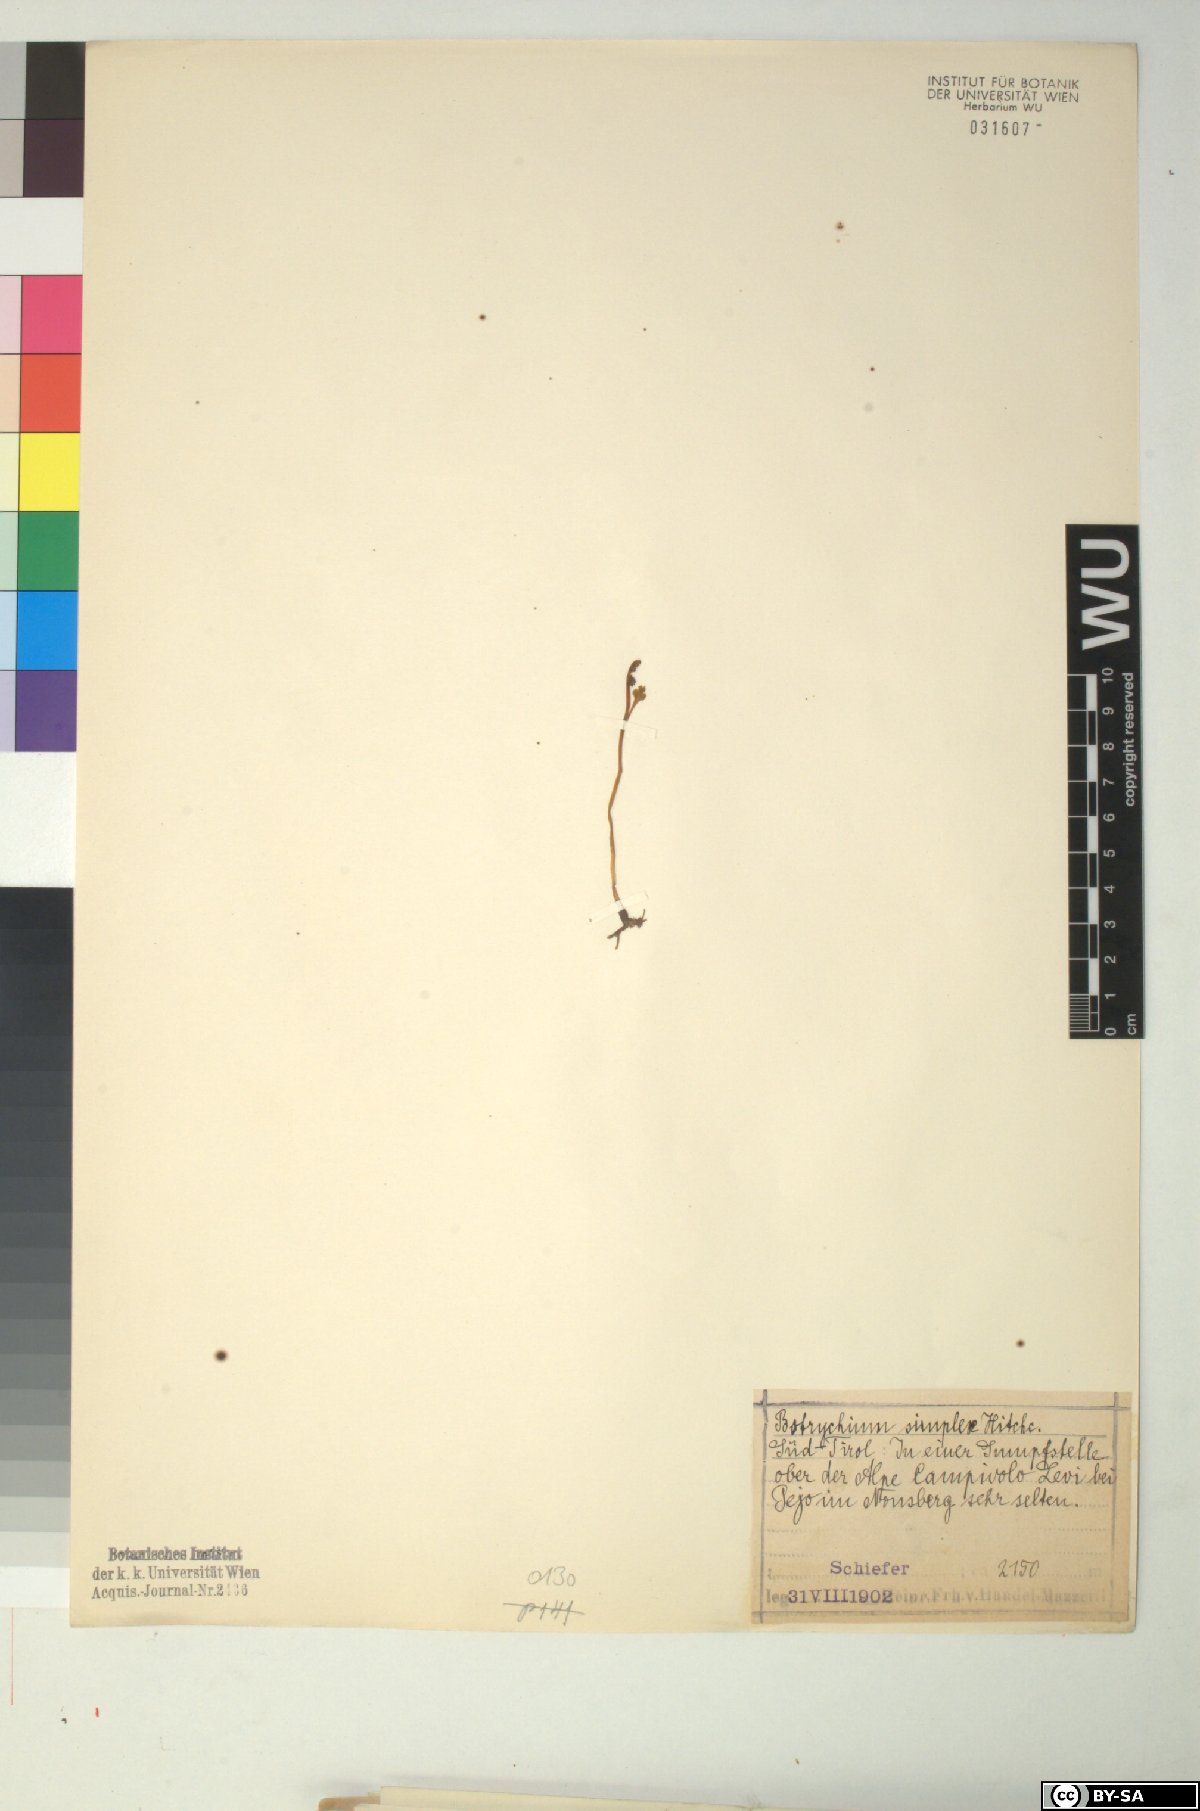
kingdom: Plantae
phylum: Tracheophyta
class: Polypodiopsida
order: Ophioglossales
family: Ophioglossaceae
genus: Botrychium
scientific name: Botrychium simplex
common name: Least moonwort
